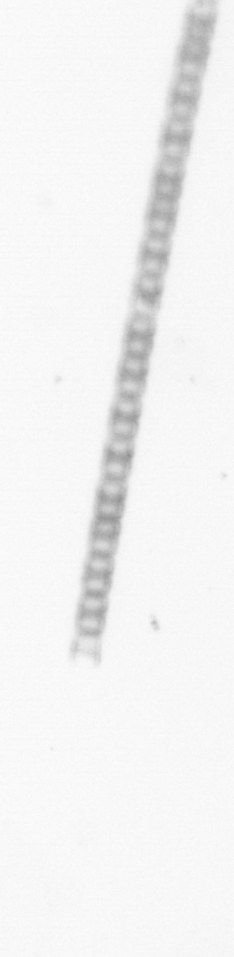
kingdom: Chromista
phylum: Ochrophyta
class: Bacillariophyceae
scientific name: Bacillariophyceae
